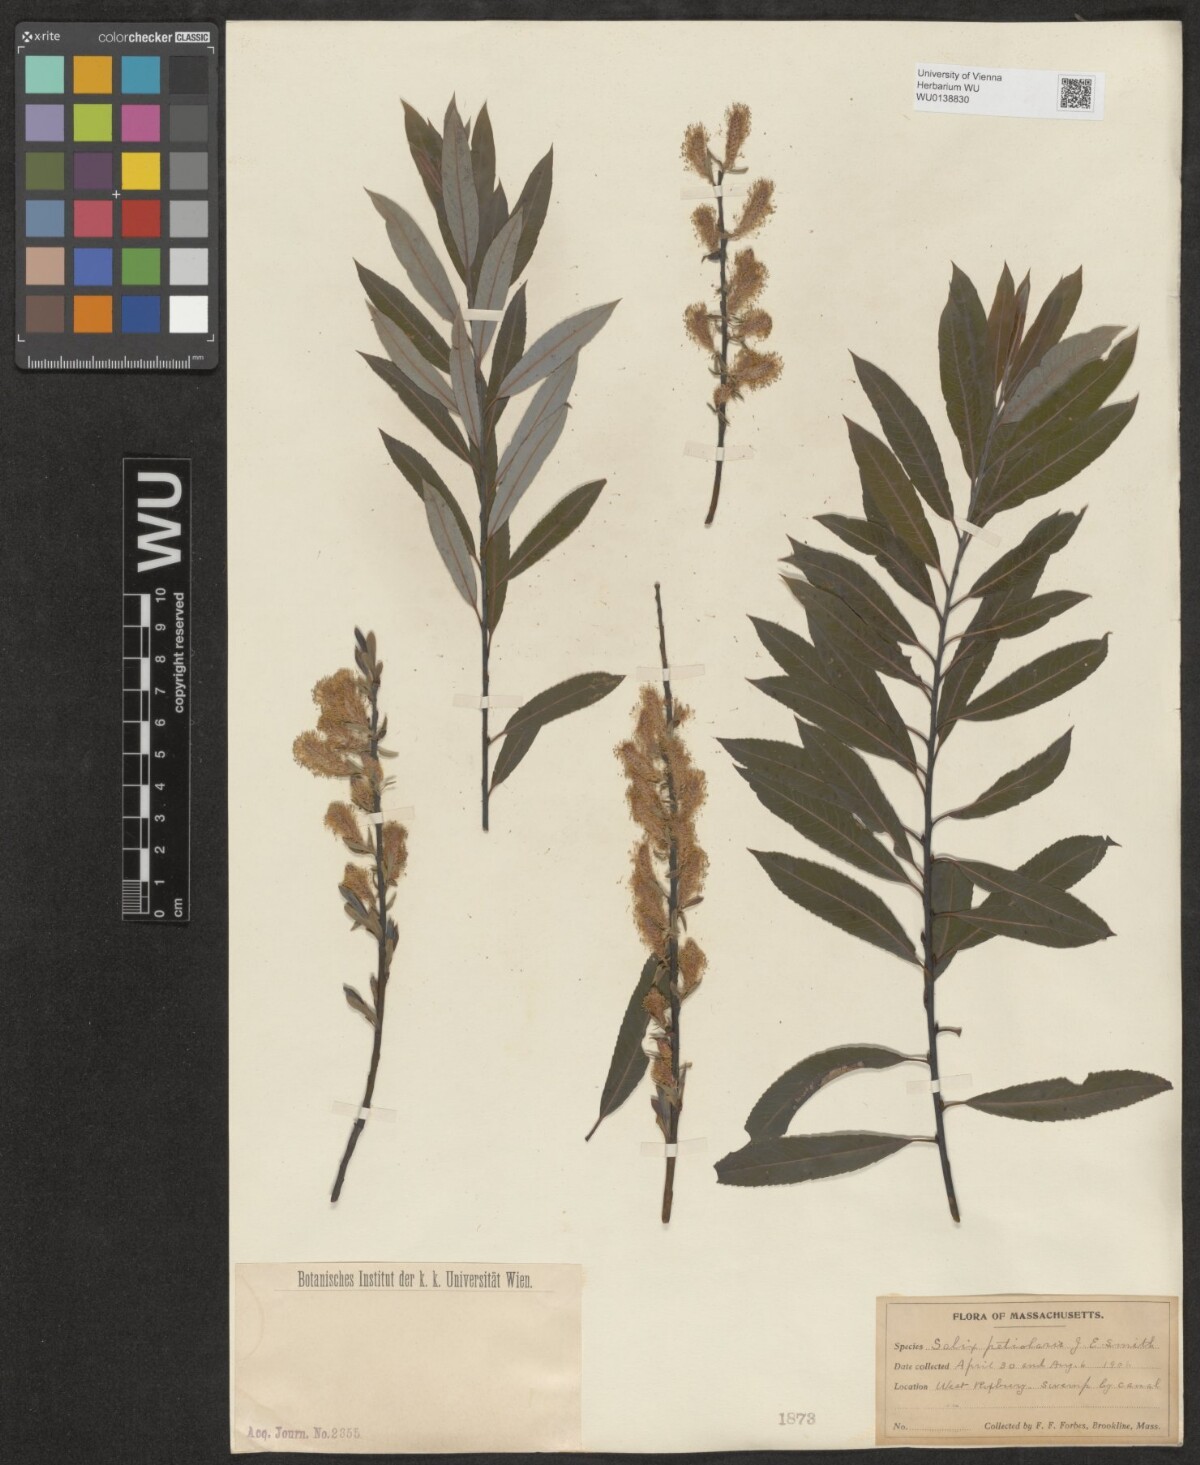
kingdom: Plantae
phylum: Tracheophyta
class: Magnoliopsida
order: Malpighiales
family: Salicaceae
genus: Salix
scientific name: Salix petiolaris
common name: Slender willow
